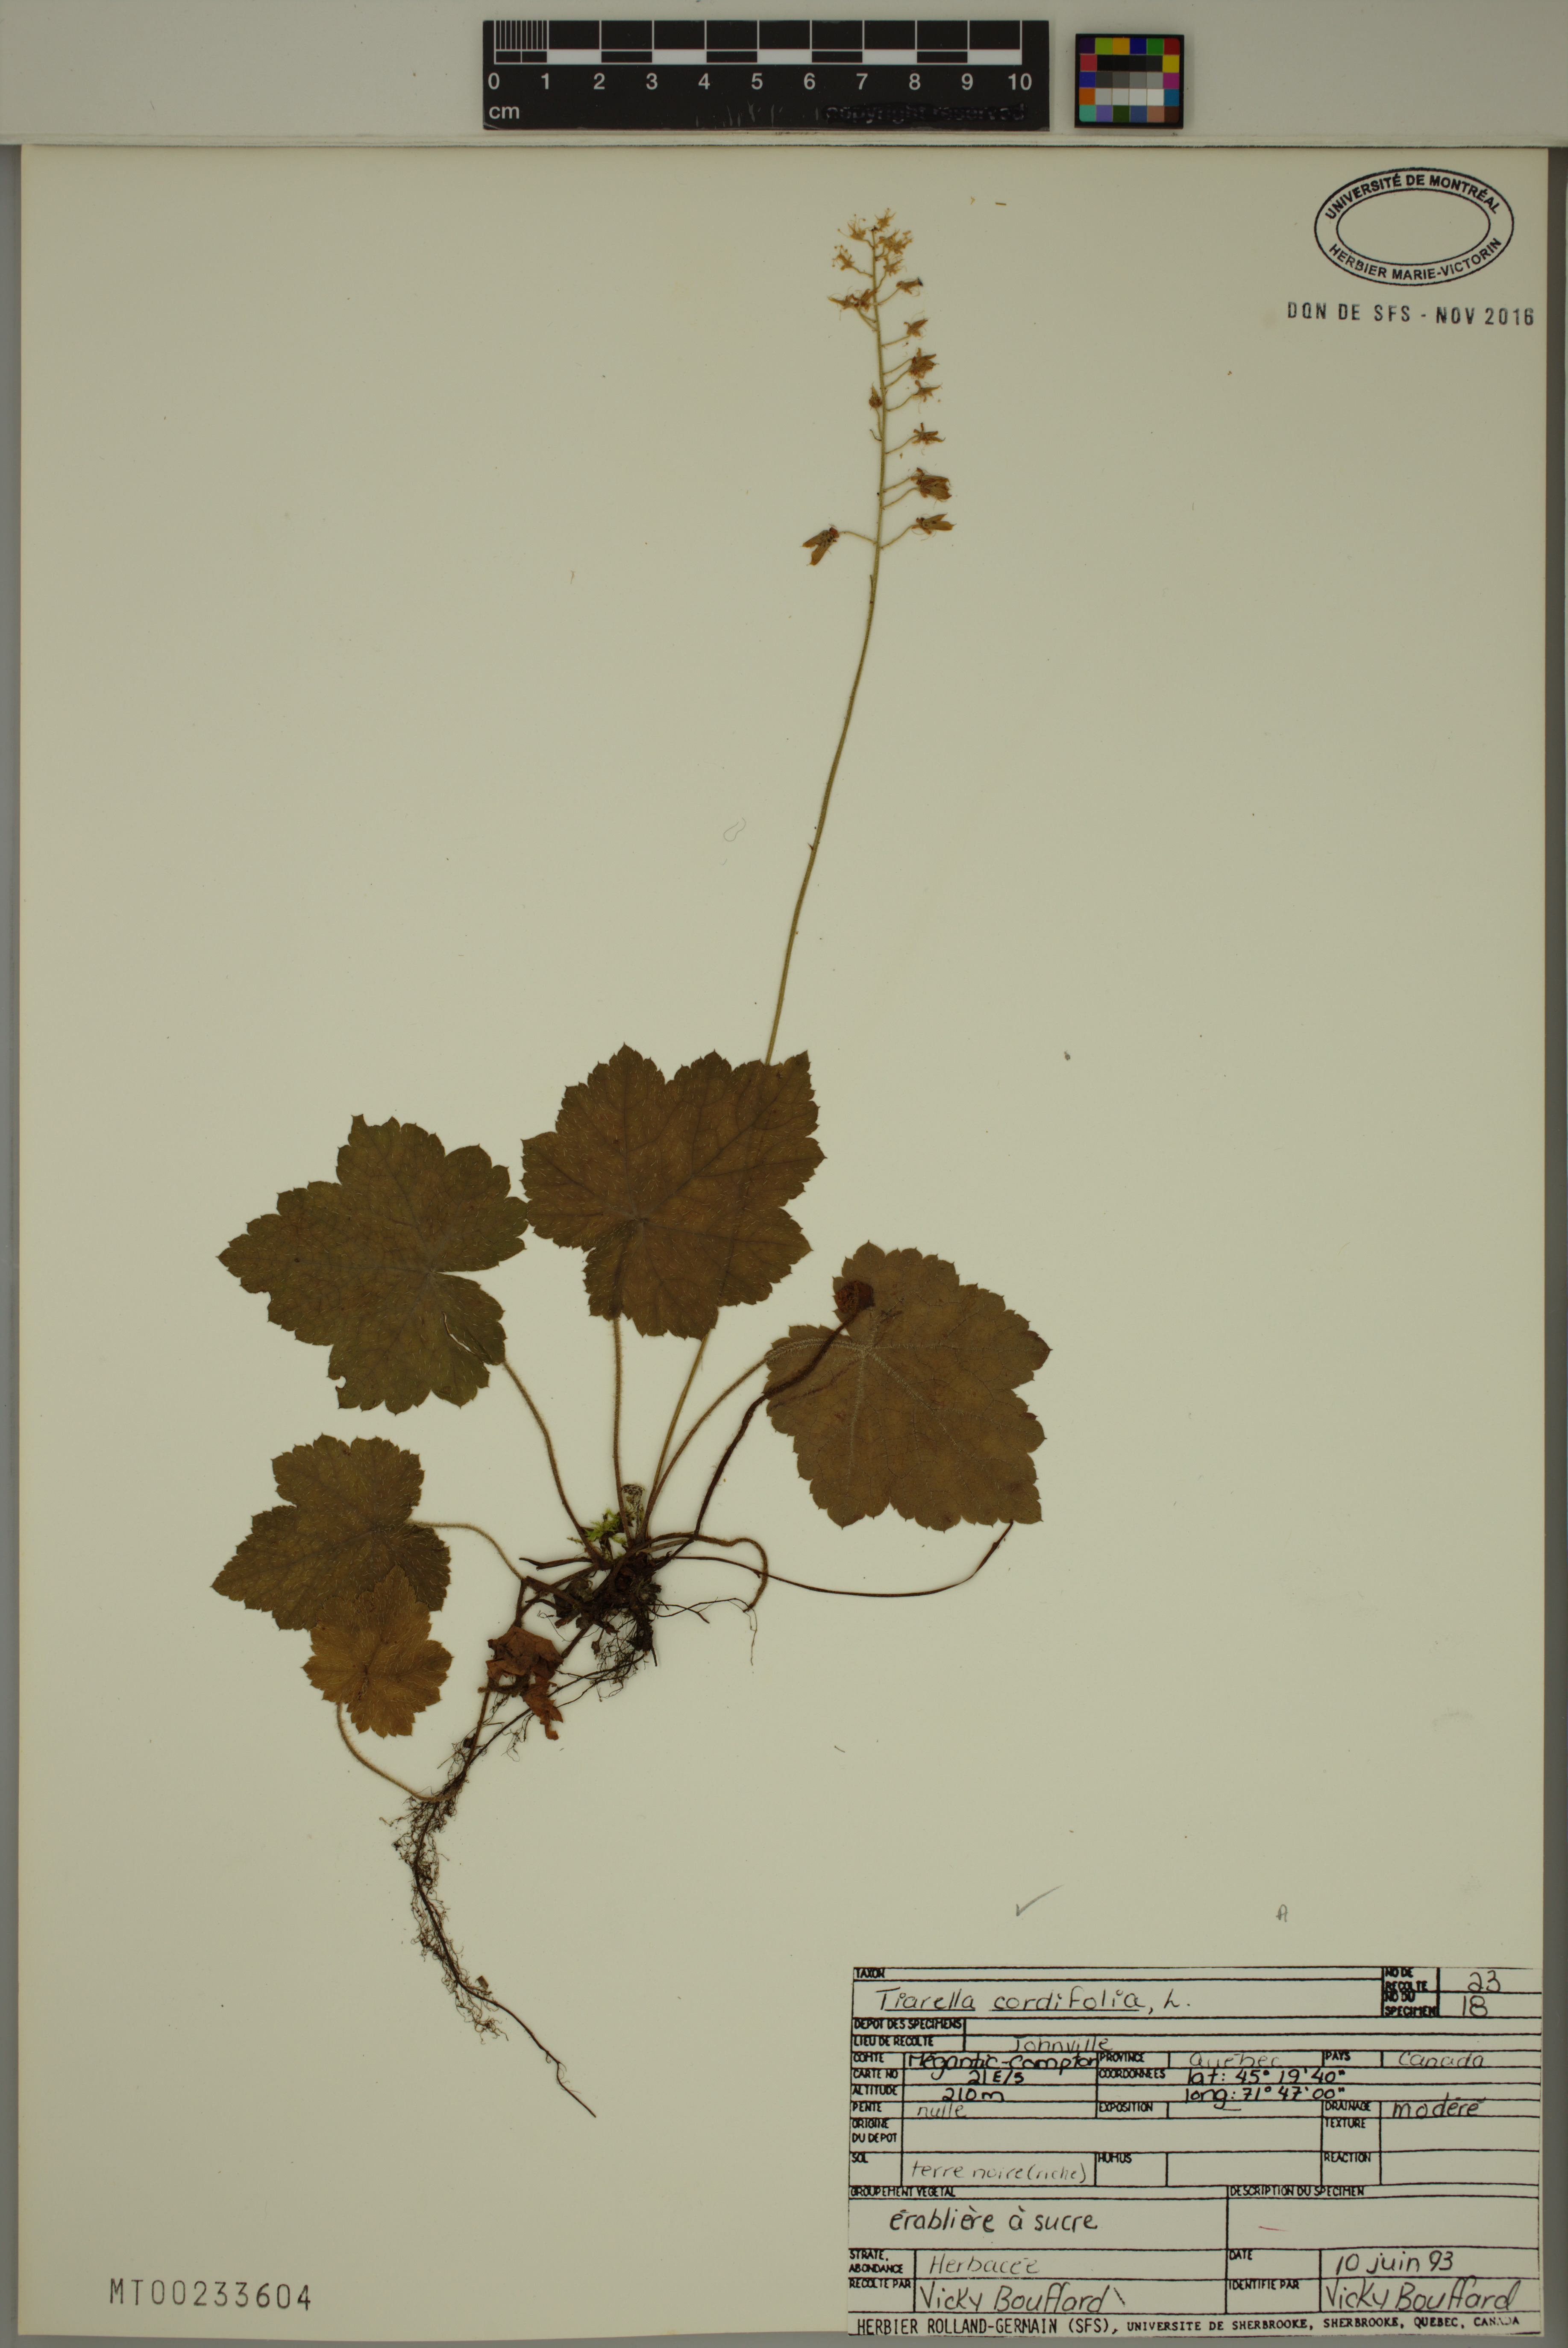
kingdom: Plantae
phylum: Tracheophyta
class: Magnoliopsida
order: Saxifragales
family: Saxifragaceae
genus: Tiarella
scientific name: Tiarella cordifolia
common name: Foamflower
